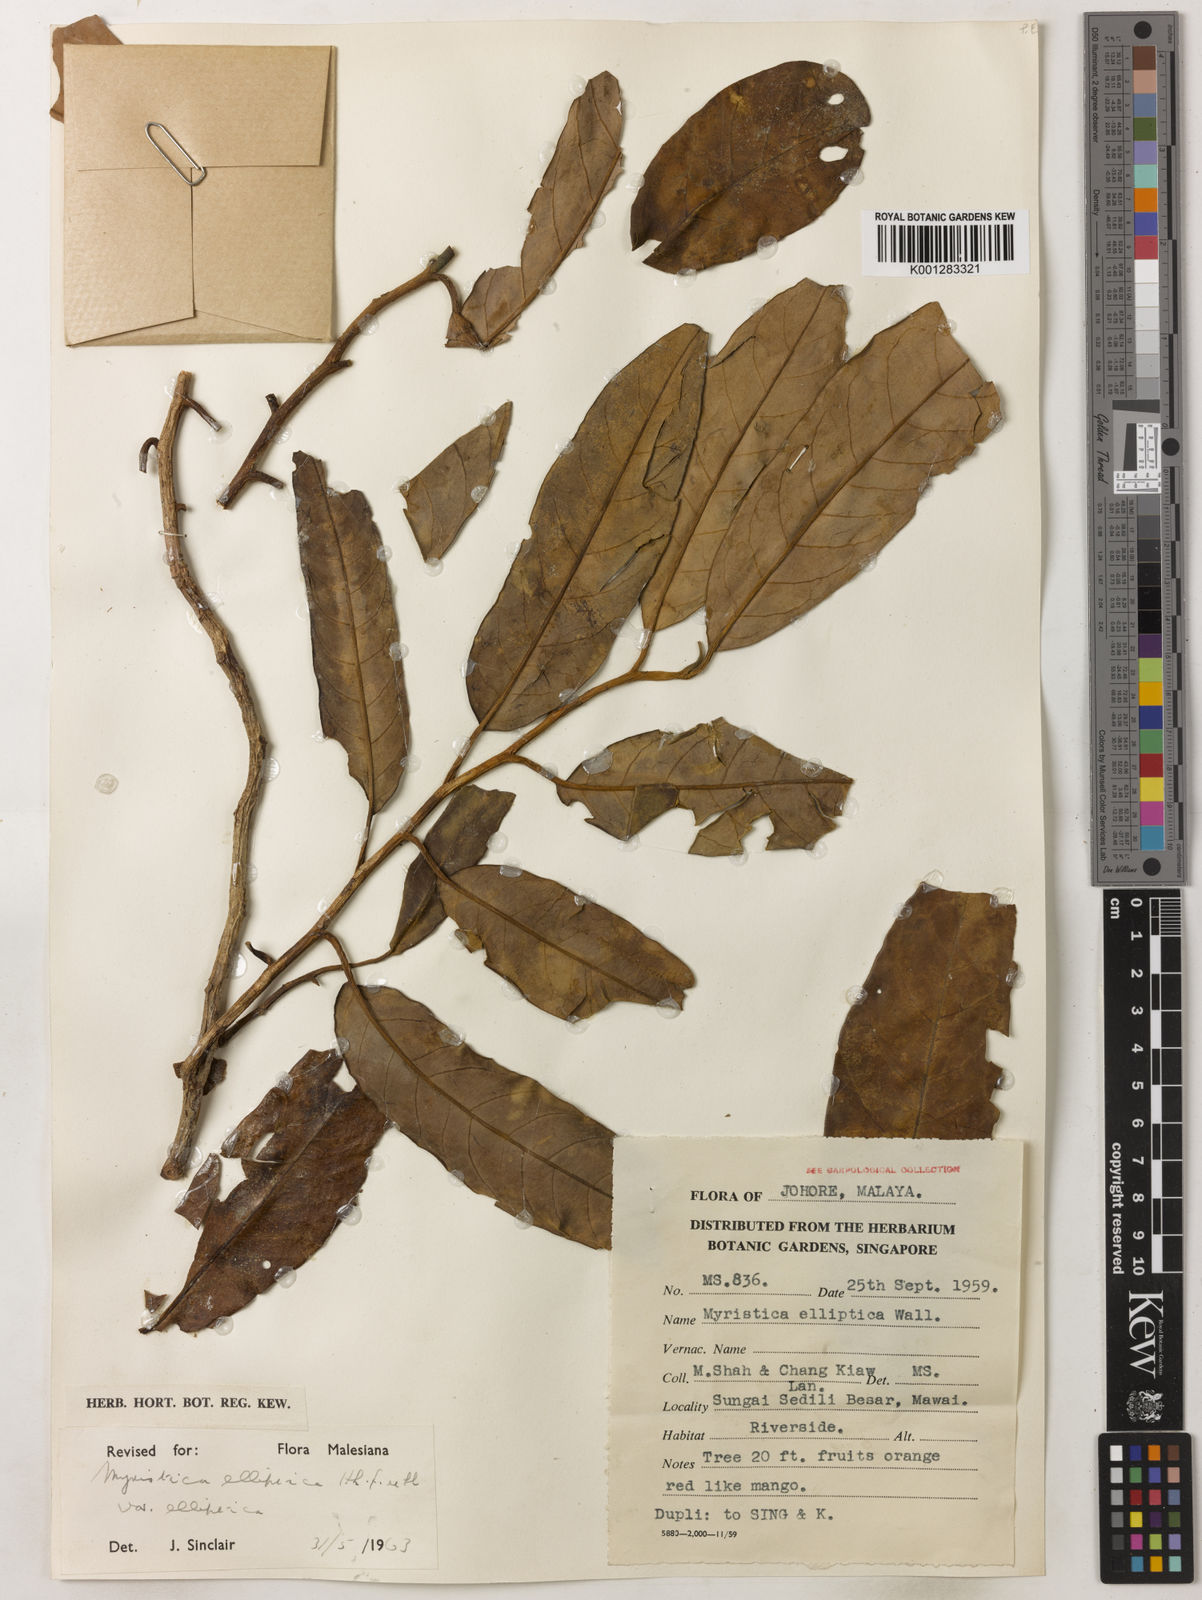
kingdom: Plantae
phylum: Tracheophyta
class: Magnoliopsida
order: Magnoliales
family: Myristicaceae
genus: Myristica
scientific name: Myristica elliptica
